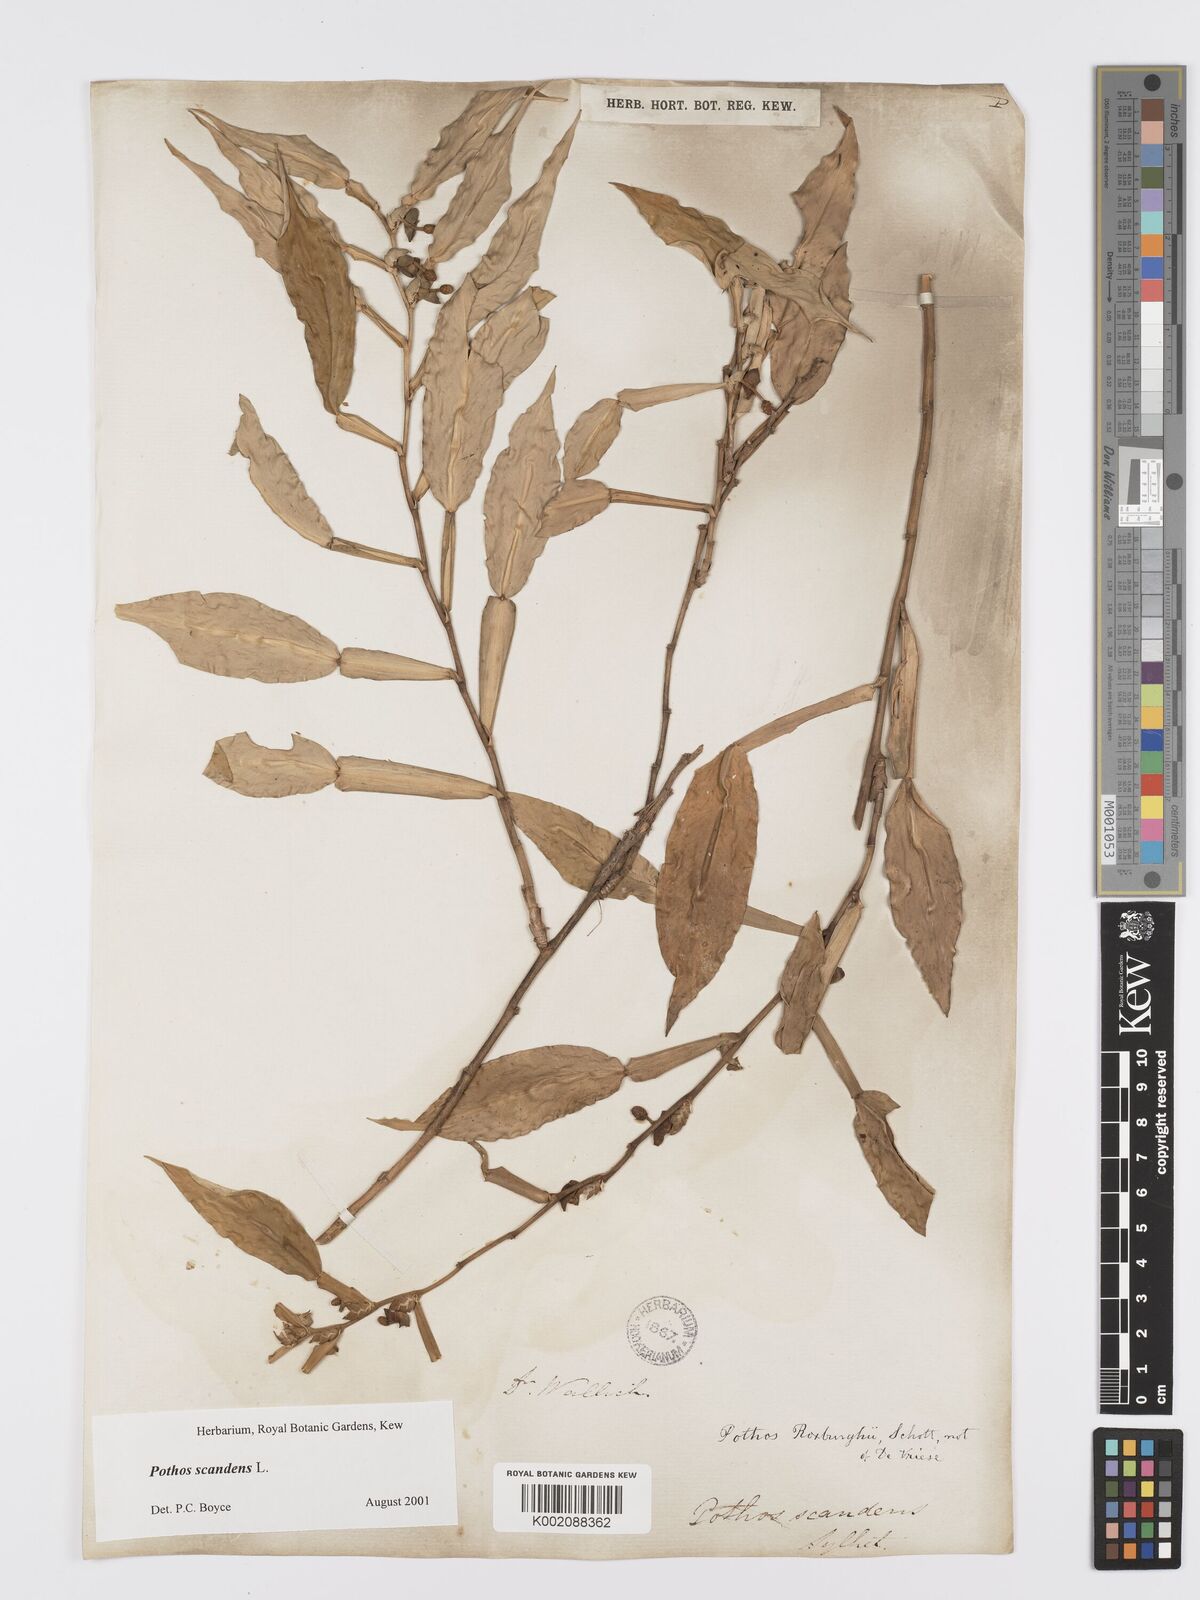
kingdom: Plantae
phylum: Tracheophyta
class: Liliopsida
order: Alismatales
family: Araceae
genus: Pothos
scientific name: Pothos scandens
